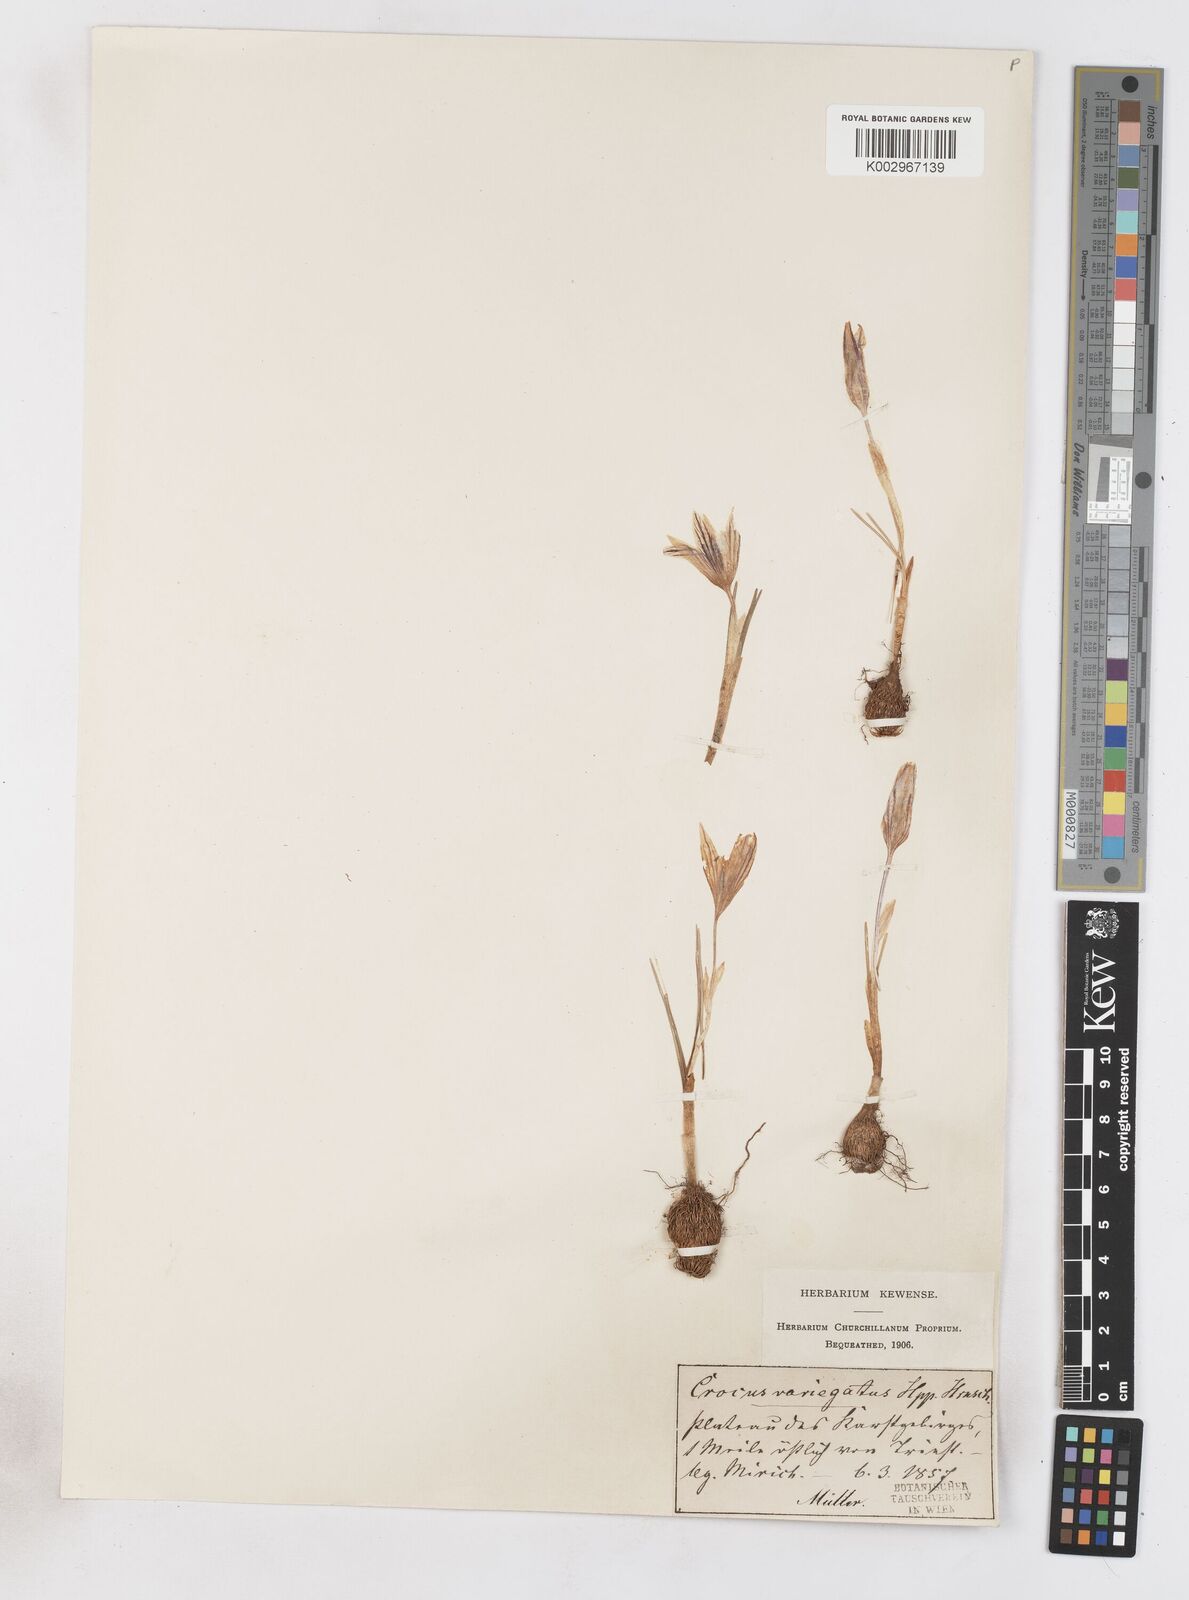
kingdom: Plantae
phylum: Tracheophyta
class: Liliopsida
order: Asparagales
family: Iridaceae
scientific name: Iridaceae
